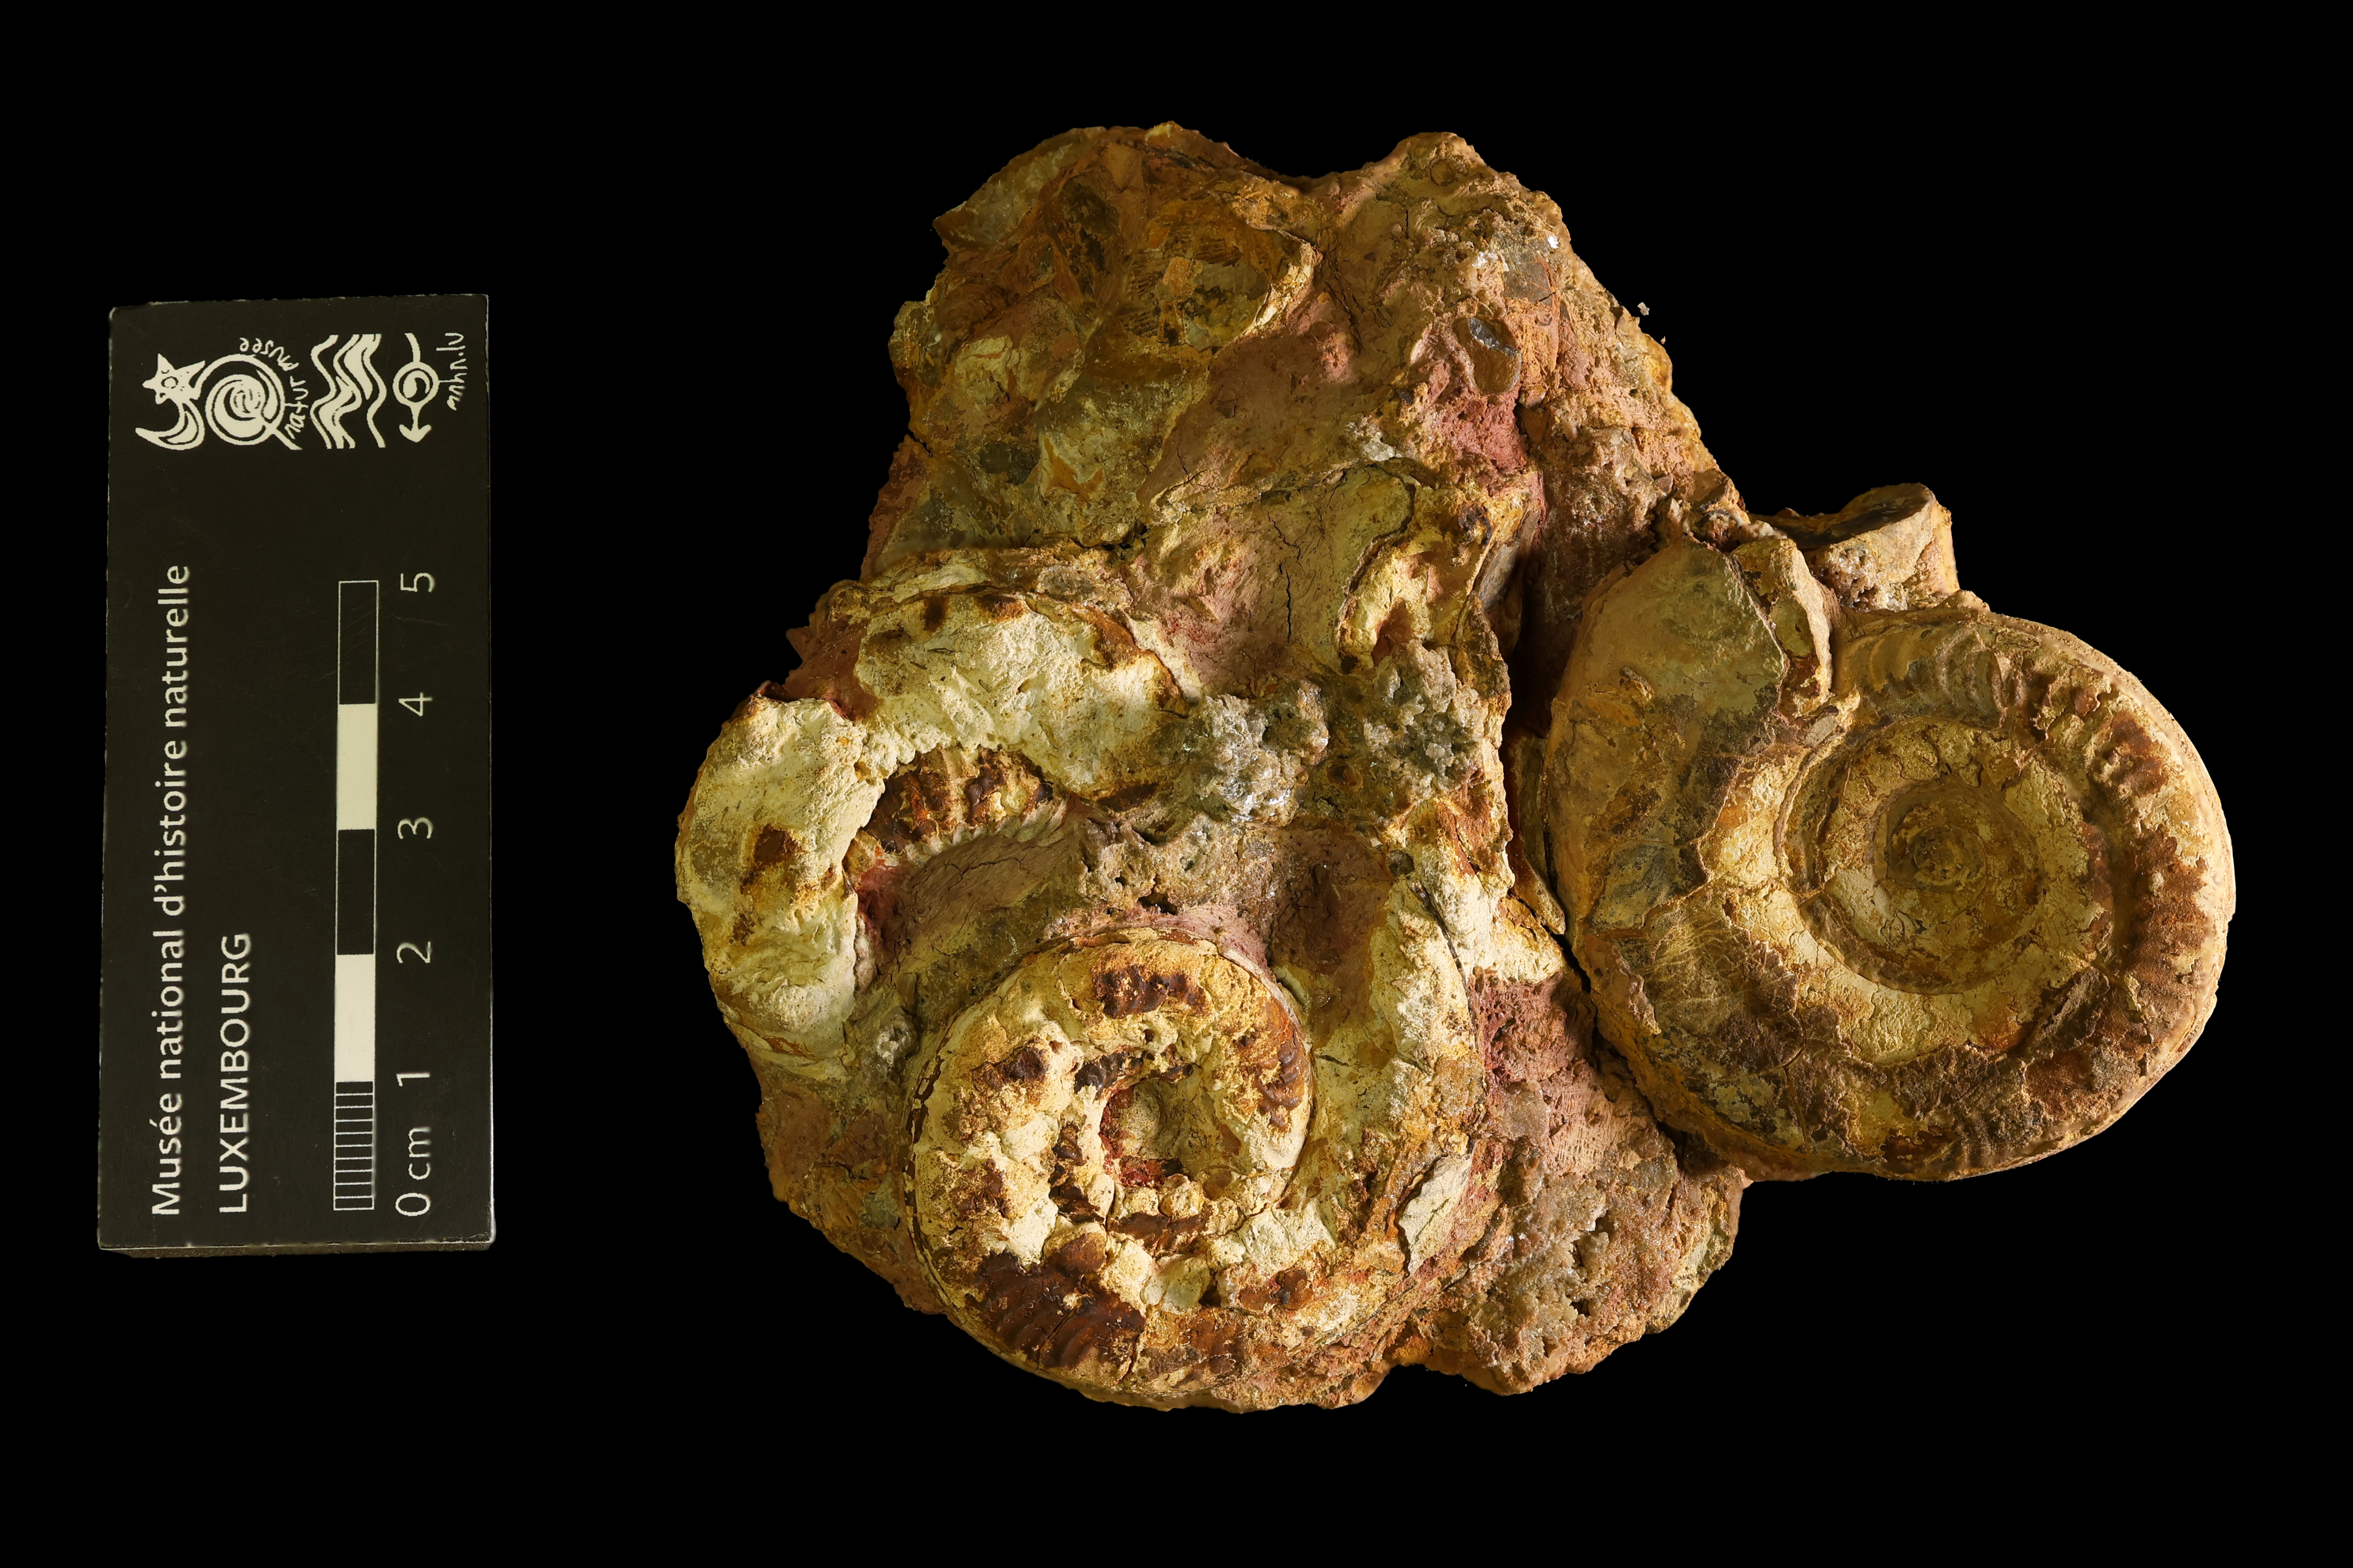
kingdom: Animalia
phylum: Mollusca
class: Cephalopoda
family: Hildoceratidae
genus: Hildoceras
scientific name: Hildoceras semipolitum
